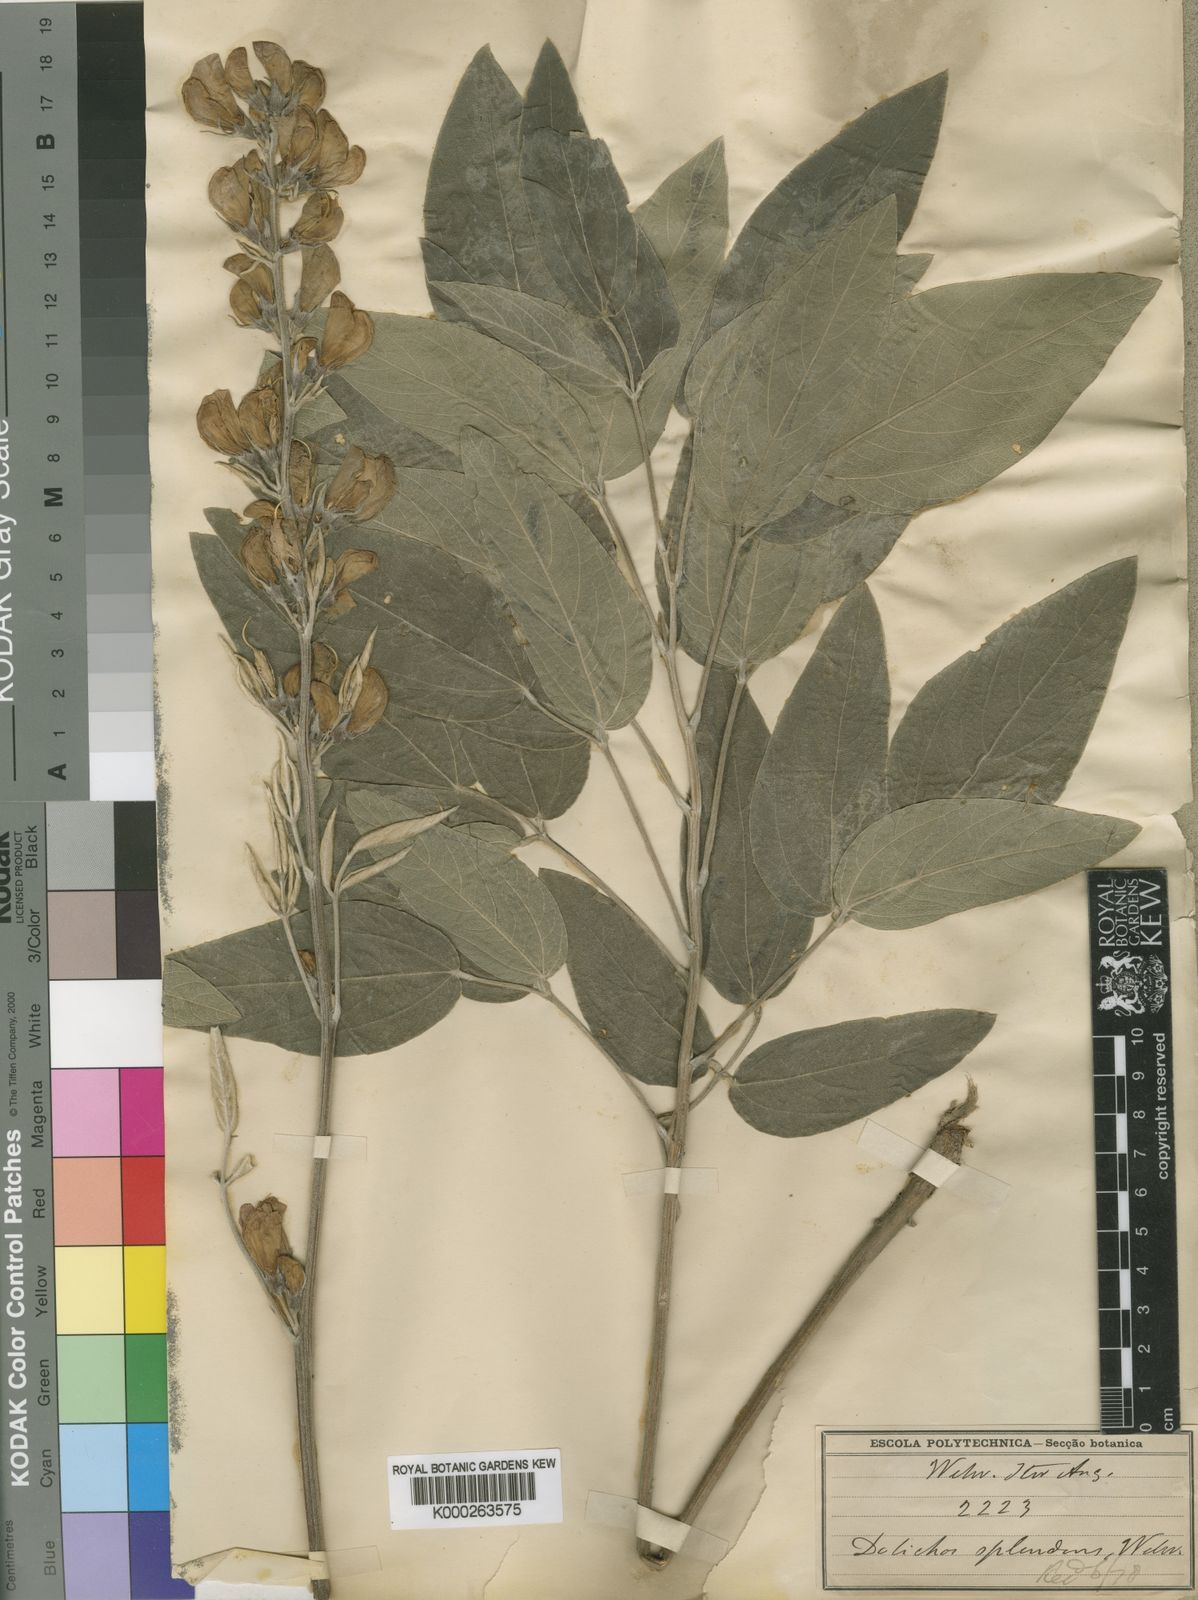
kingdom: Plantae
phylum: Tracheophyta
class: Magnoliopsida
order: Fabales
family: Fabaceae
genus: Dolichos
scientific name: Dolichos splendens
